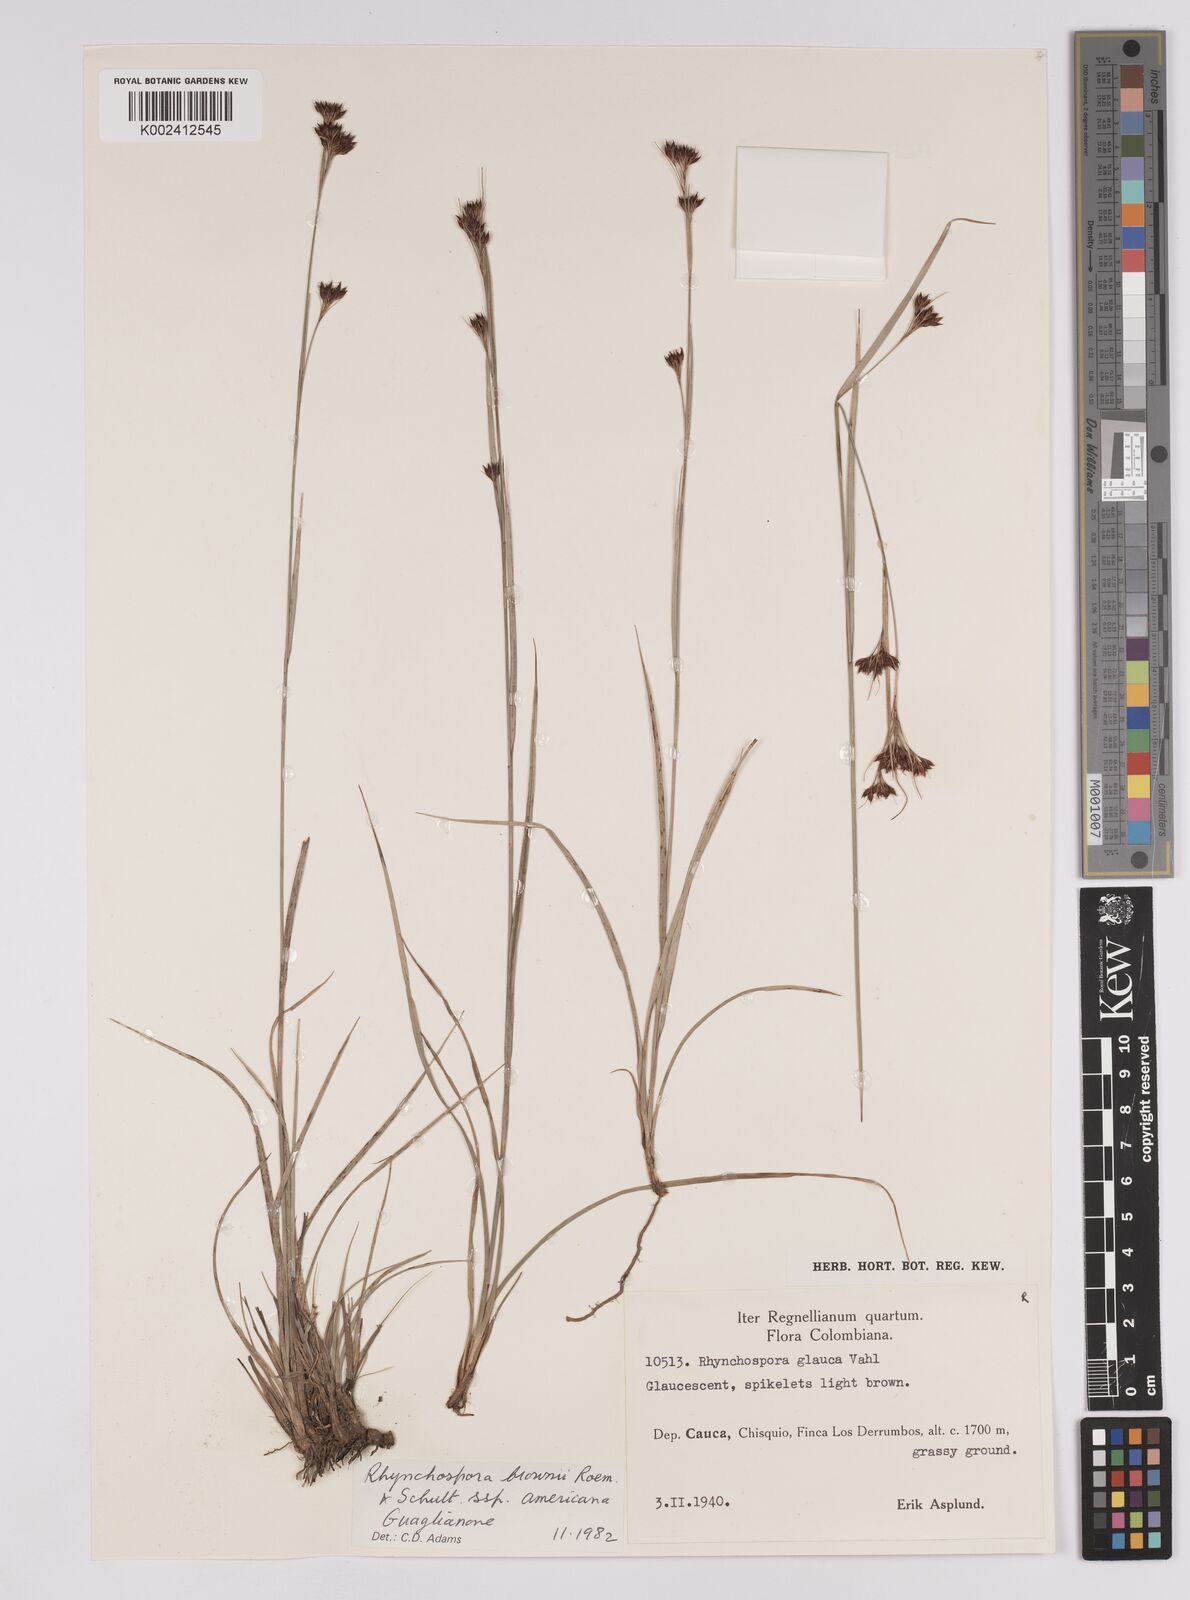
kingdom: Plantae
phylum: Tracheophyta
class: Liliopsida
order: Poales
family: Cyperaceae
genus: Rhynchospora
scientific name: Rhynchospora rugosa
